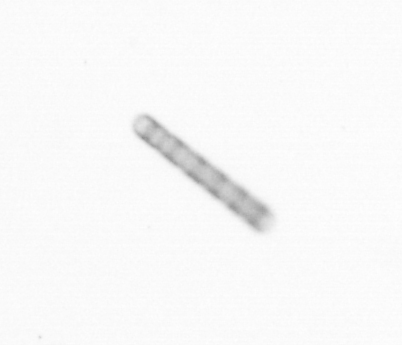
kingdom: Chromista
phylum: Ochrophyta
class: Bacillariophyceae
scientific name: Bacillariophyceae
